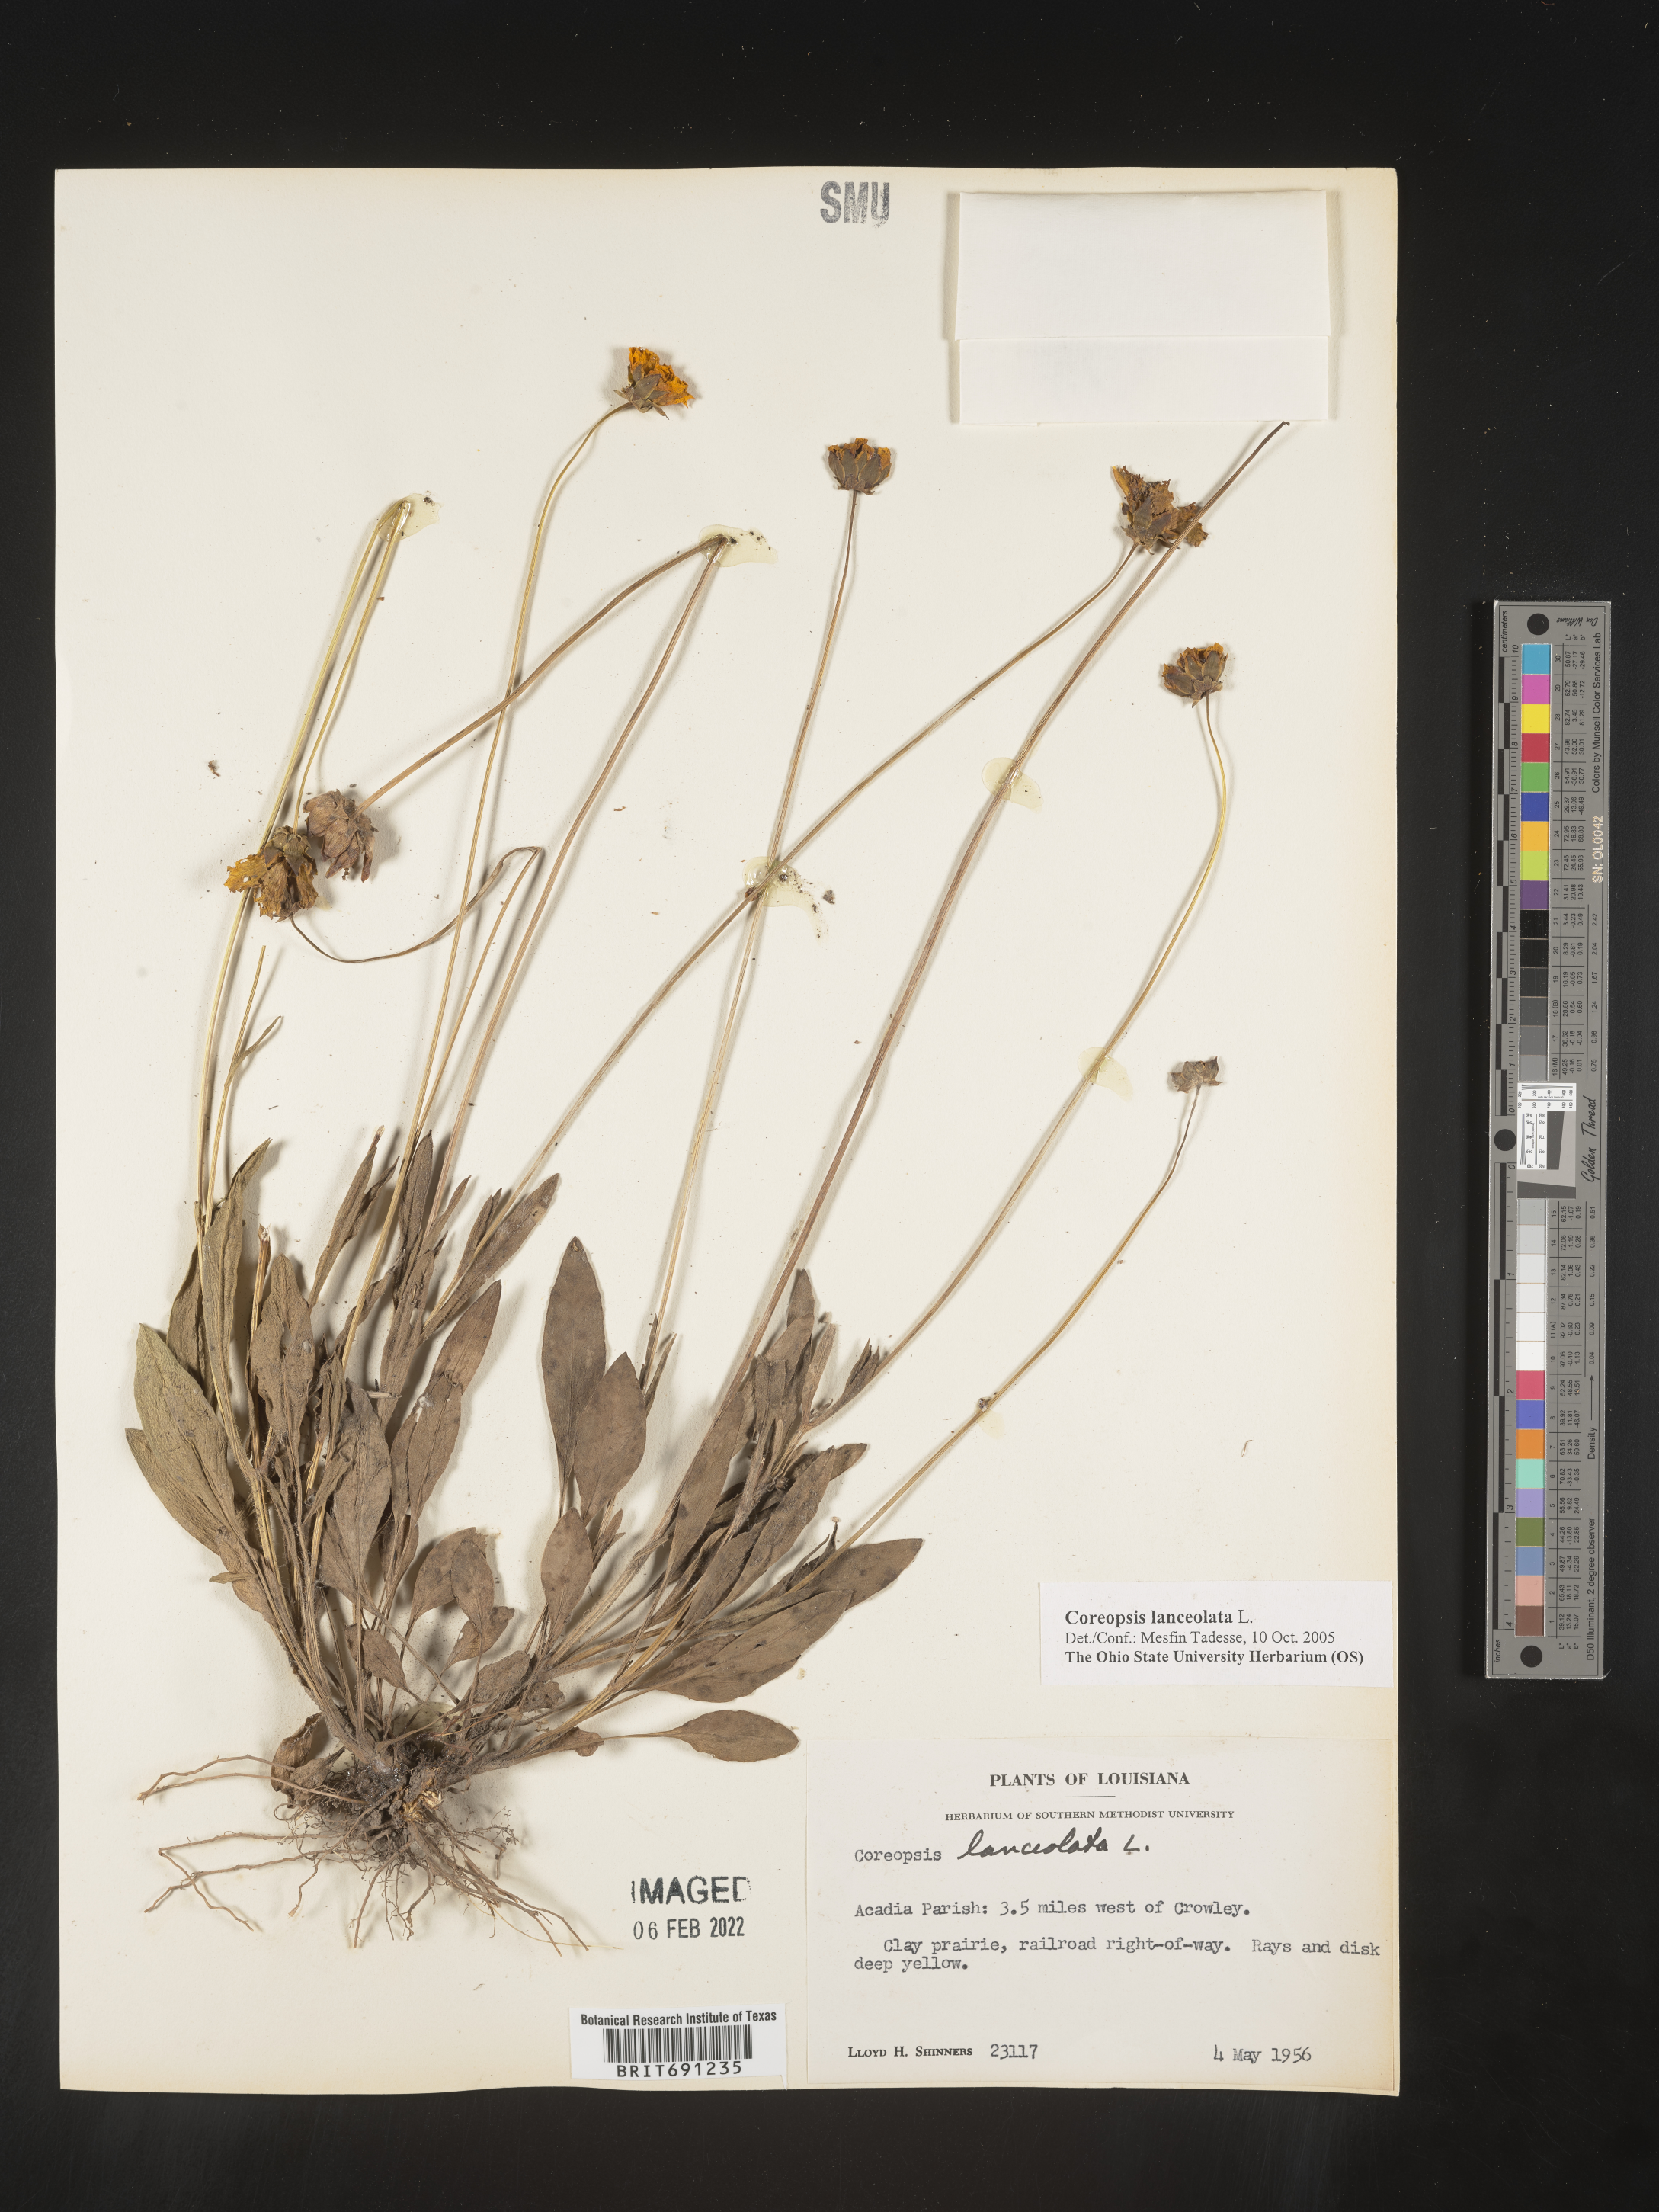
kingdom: Plantae
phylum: Tracheophyta
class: Magnoliopsida
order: Asterales
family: Asteraceae
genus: Coreopsis
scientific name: Coreopsis lanceolata
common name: Garden coreopsis
